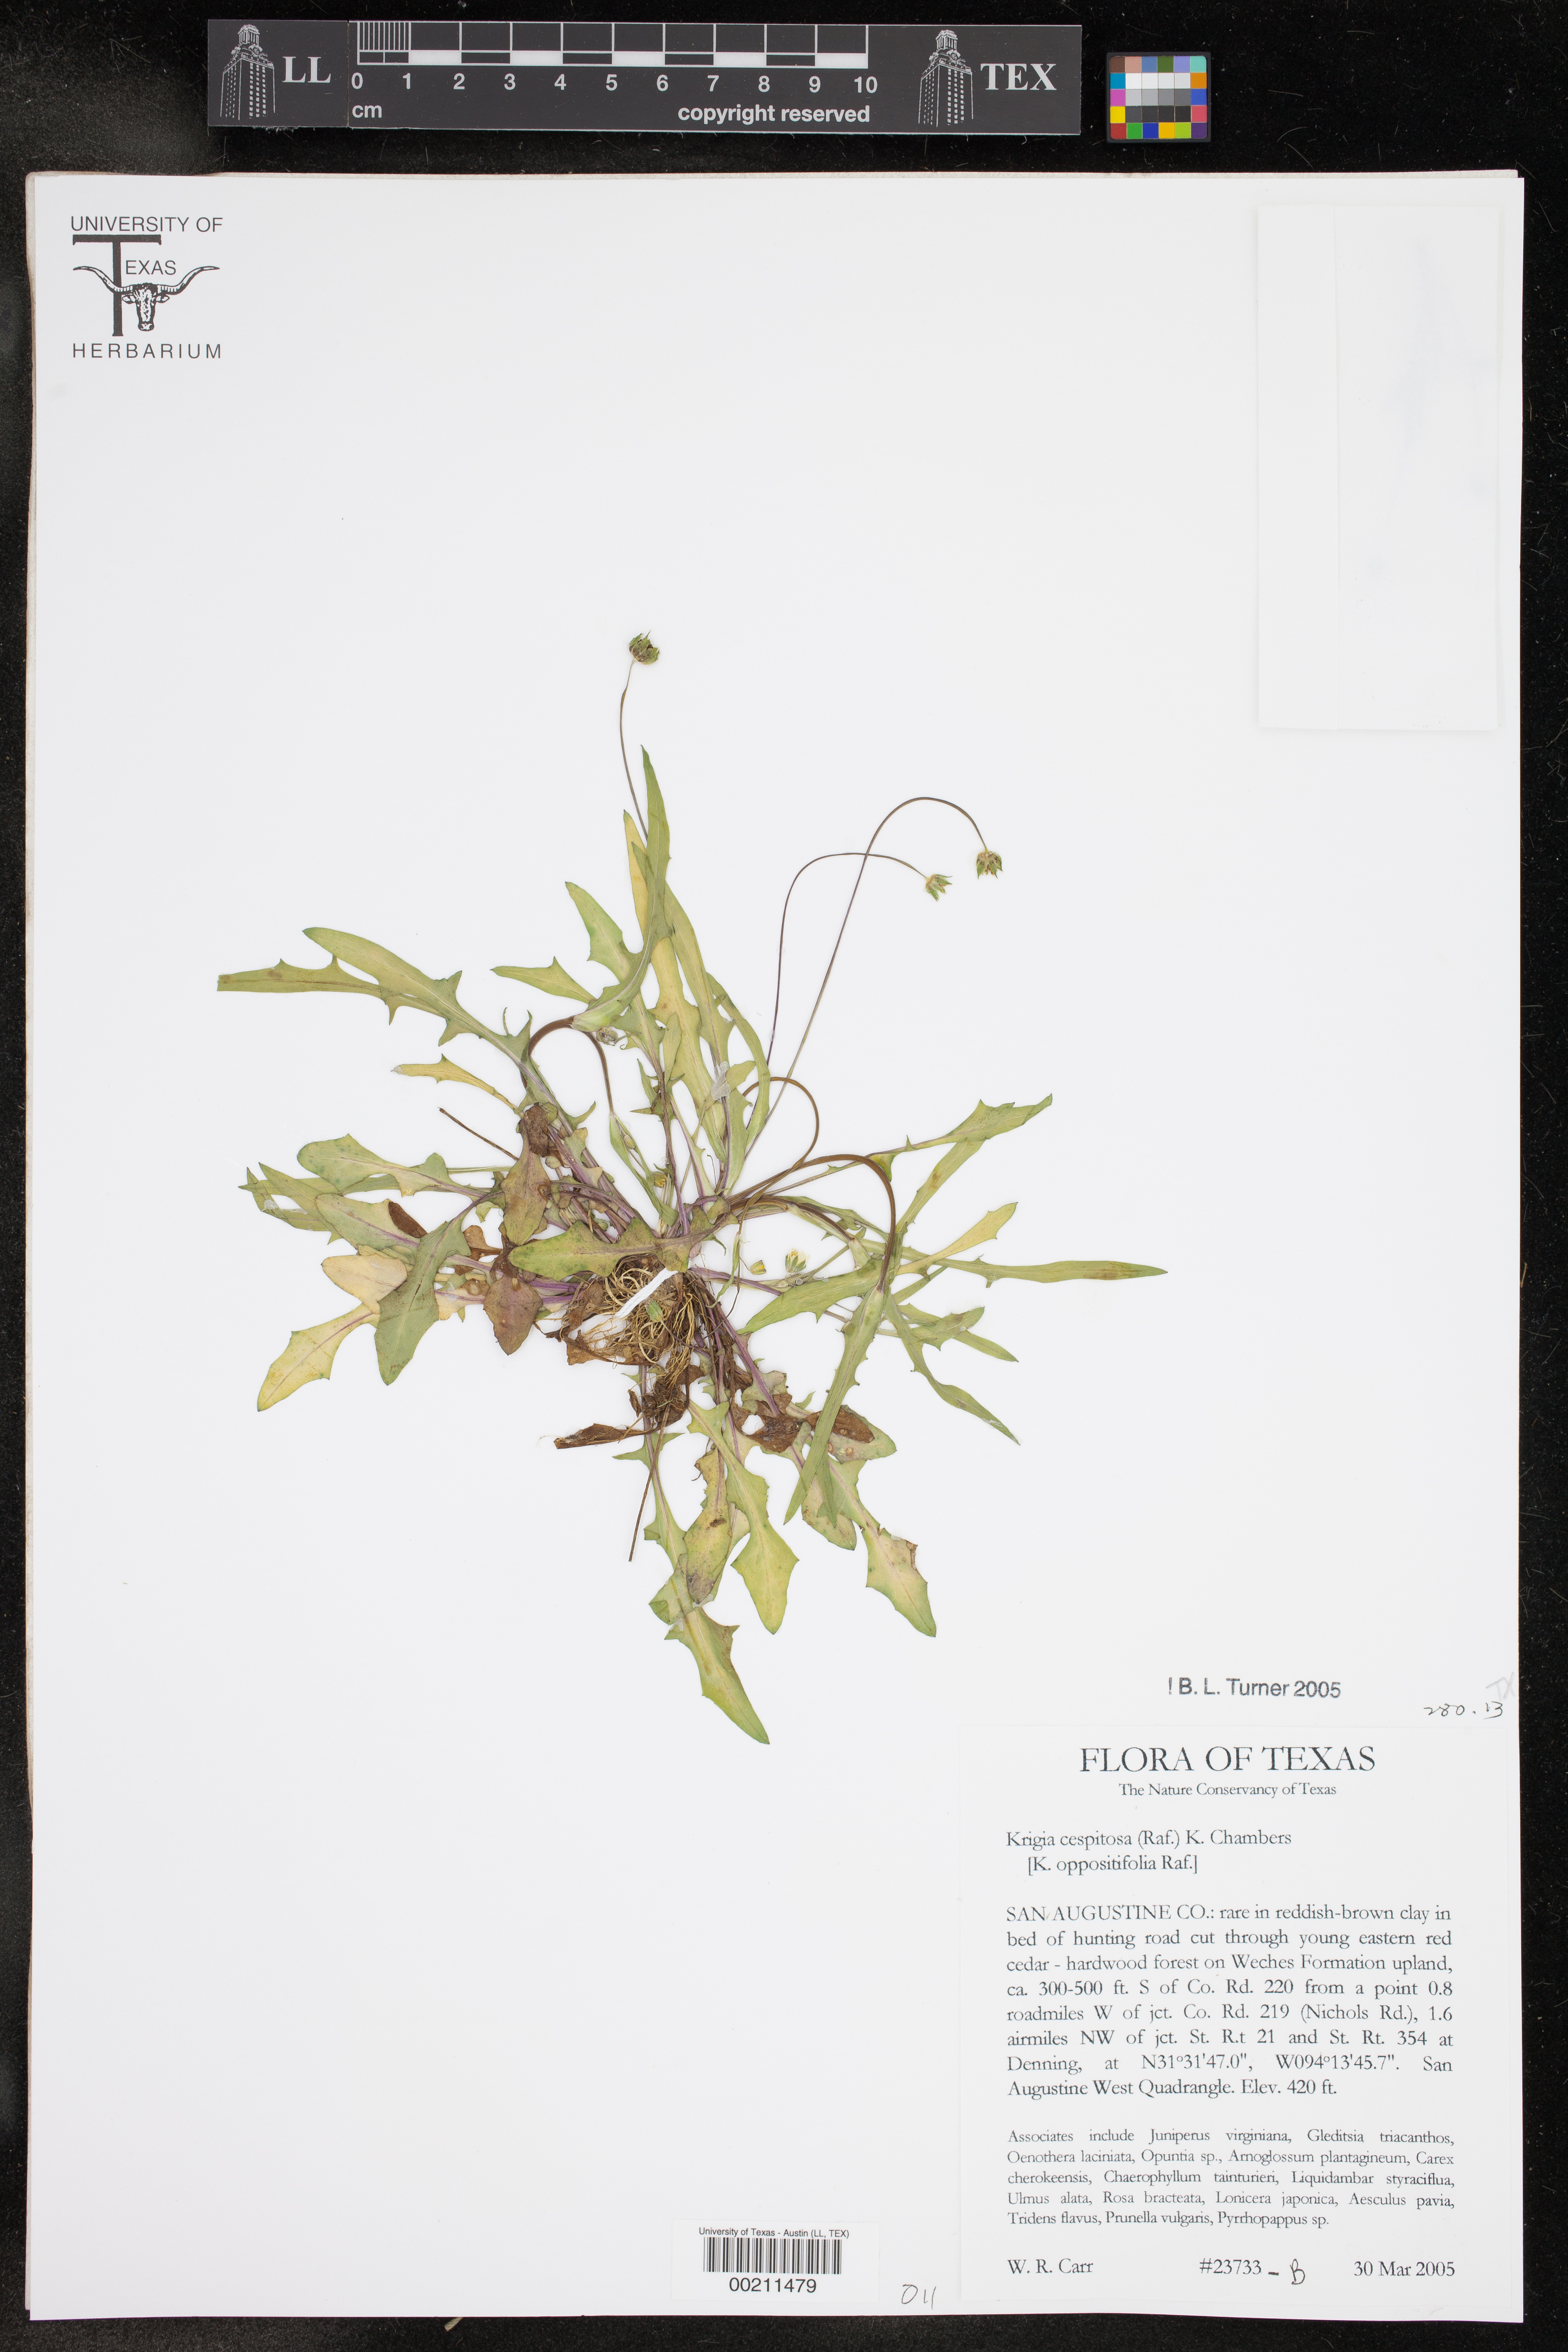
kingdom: Plantae
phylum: Tracheophyta
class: Magnoliopsida
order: Asterales
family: Asteraceae
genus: Krigia
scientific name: Krigia cespitosa
